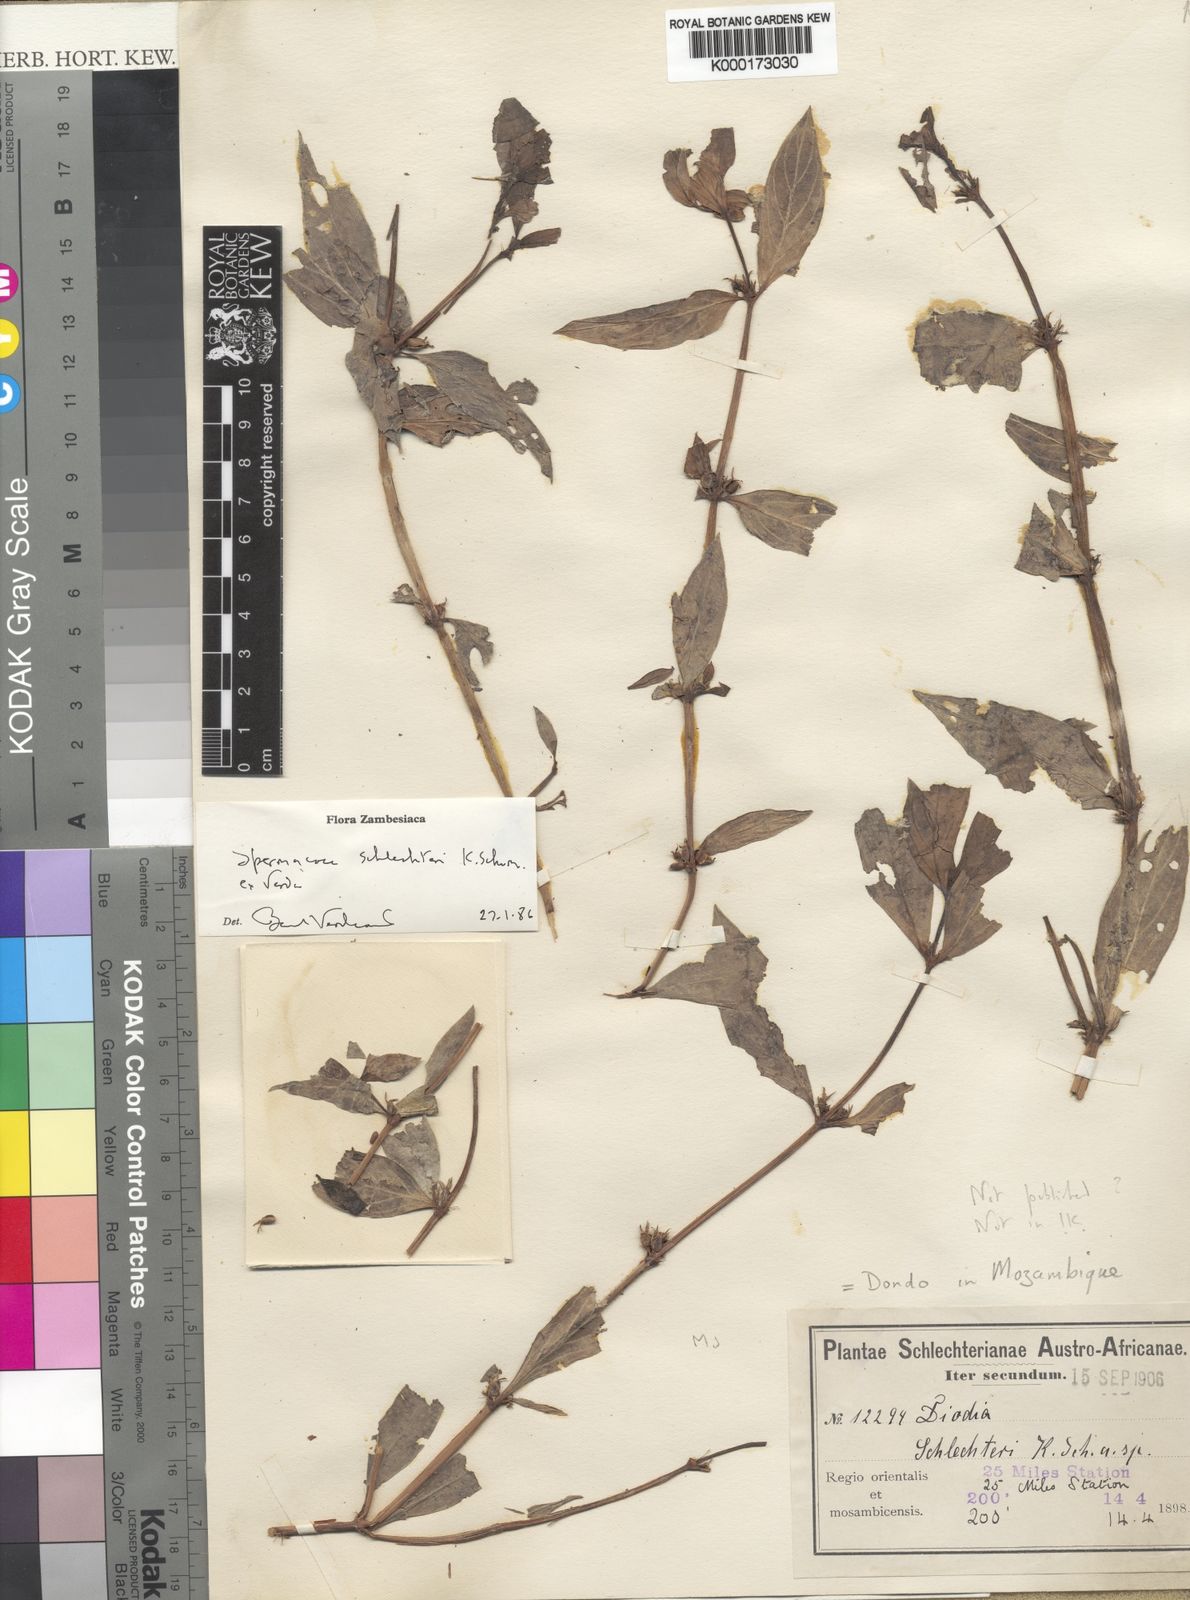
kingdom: Plantae
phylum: Tracheophyta
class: Magnoliopsida
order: Gentianales
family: Rubiaceae
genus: Spermacoce
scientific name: Spermacoce schlechteri
